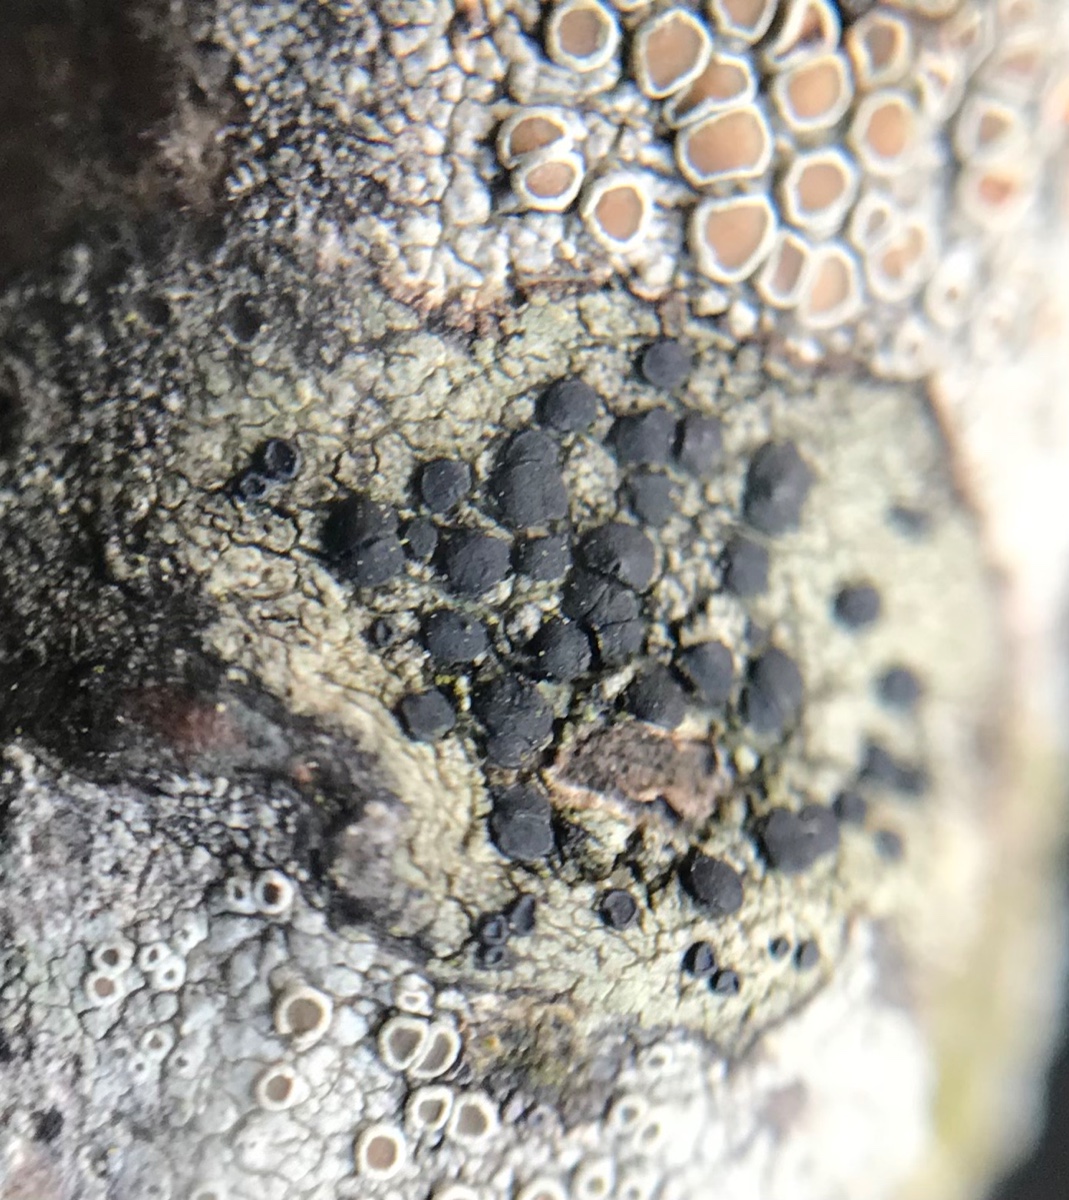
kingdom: Fungi
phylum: Ascomycota
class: Lecanoromycetes
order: Lecanorales
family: Lecanoraceae
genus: Lecidella
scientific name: Lecidella elaeochroma
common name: grågrøn skivelav
